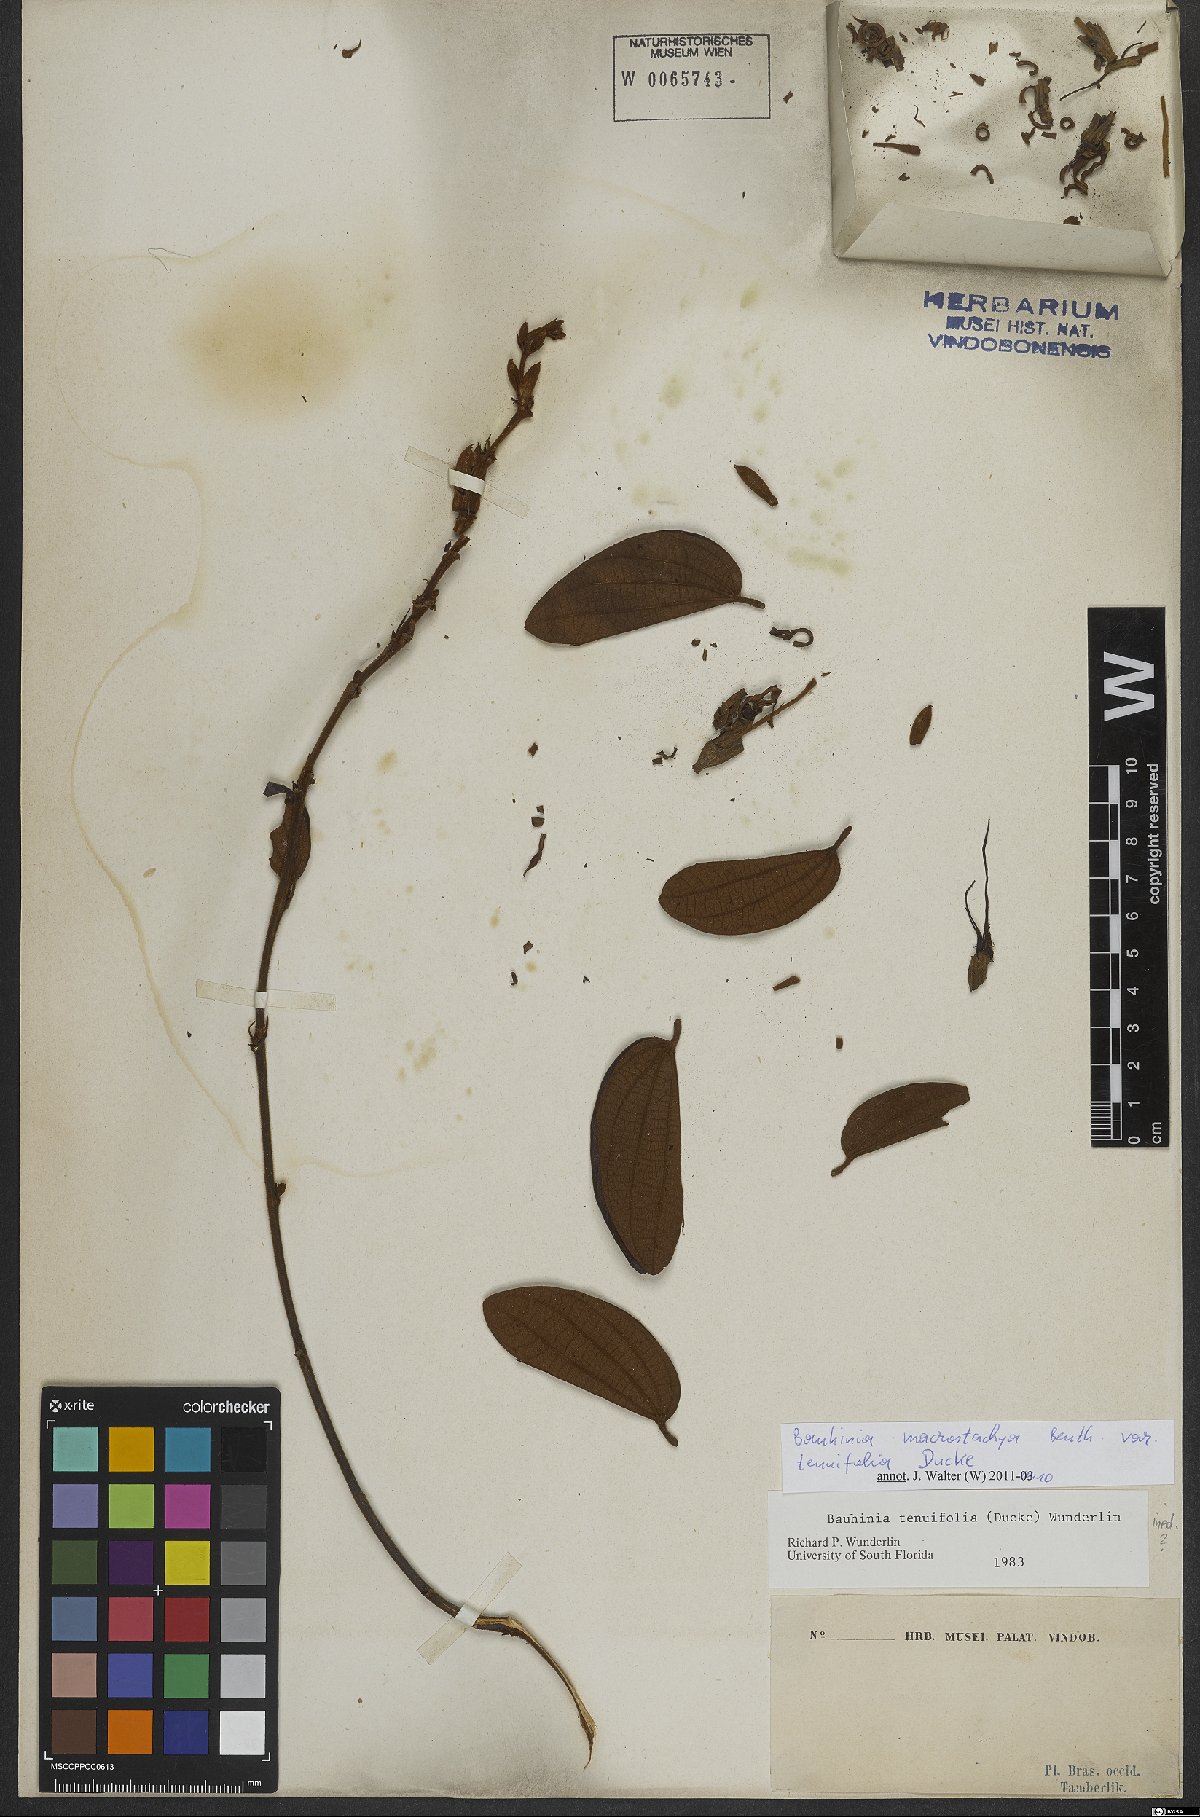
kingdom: Plantae
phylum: Tracheophyta
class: Magnoliopsida
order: Fabales
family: Fabaceae
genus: Phanera
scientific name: Phanera macrostachya
